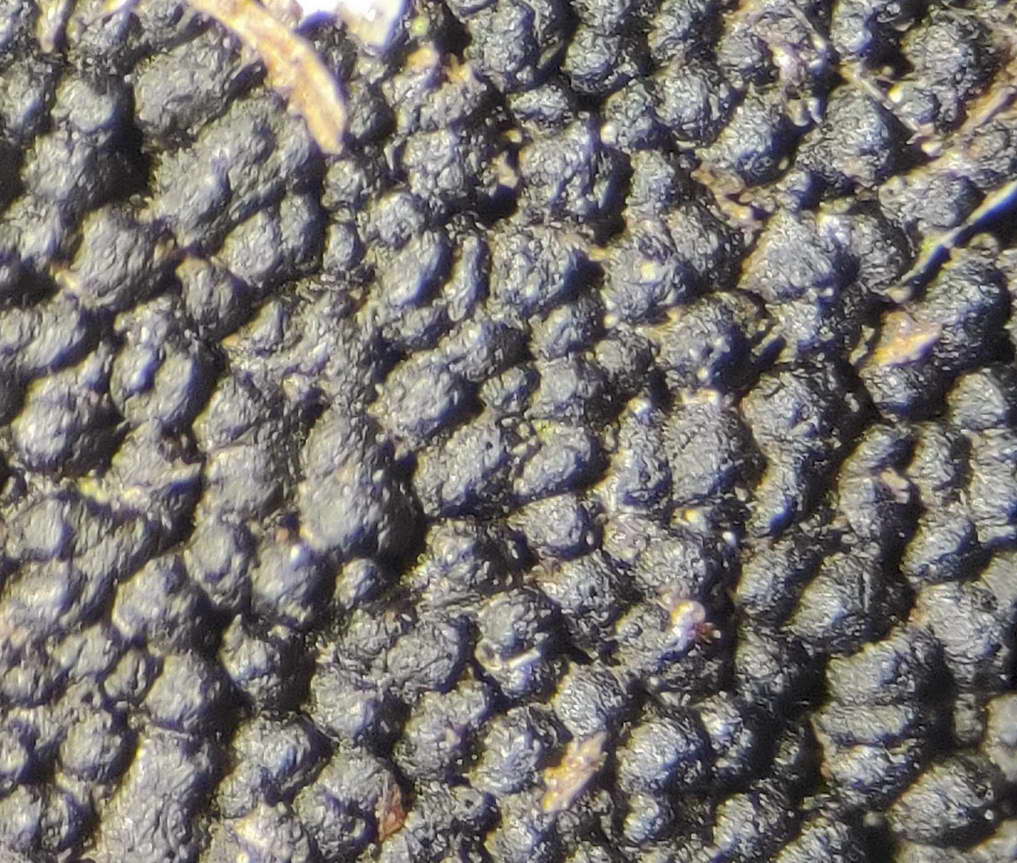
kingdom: Fungi
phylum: Ascomycota
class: Dothideomycetes
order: Pleosporales
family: Melanommataceae
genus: Melanomma
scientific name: Melanomma pulvis-pyrius
